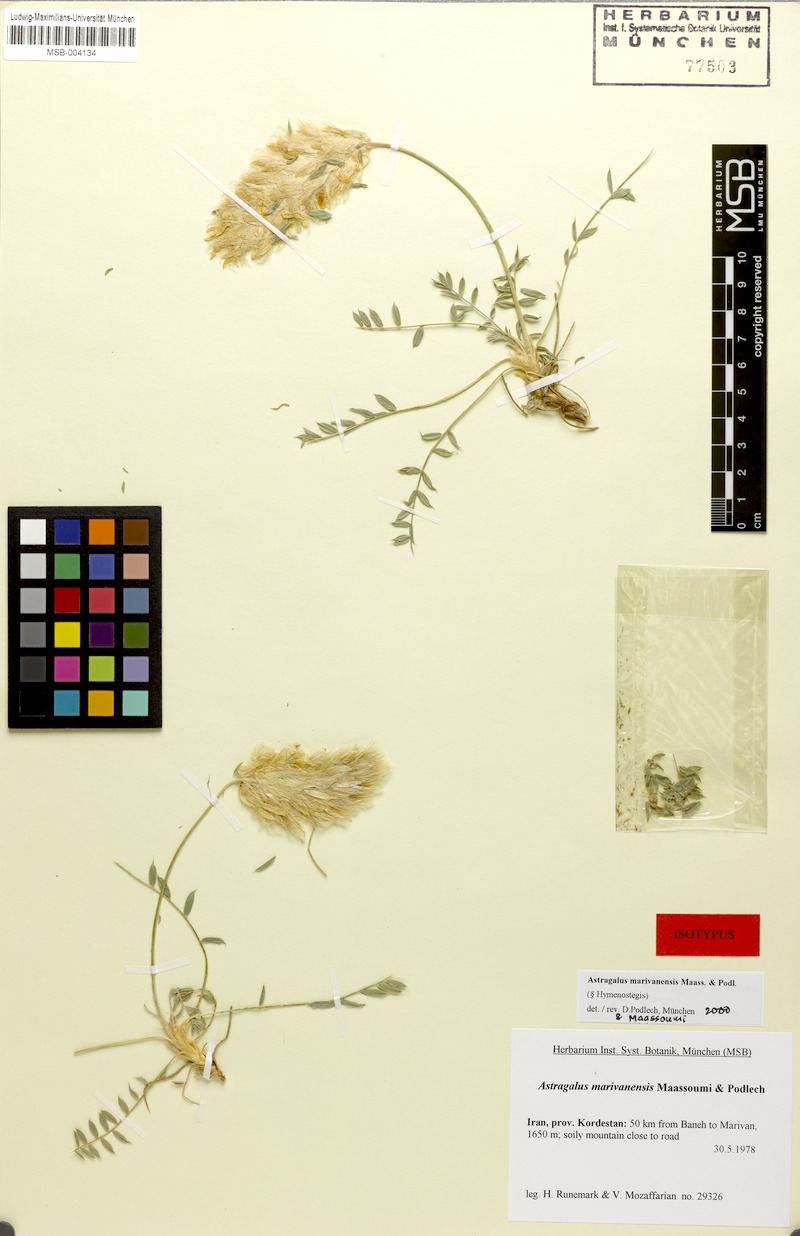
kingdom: Plantae
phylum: Tracheophyta
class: Magnoliopsida
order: Fabales
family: Fabaceae
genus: Astragalus
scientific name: Astragalus marivanensis
